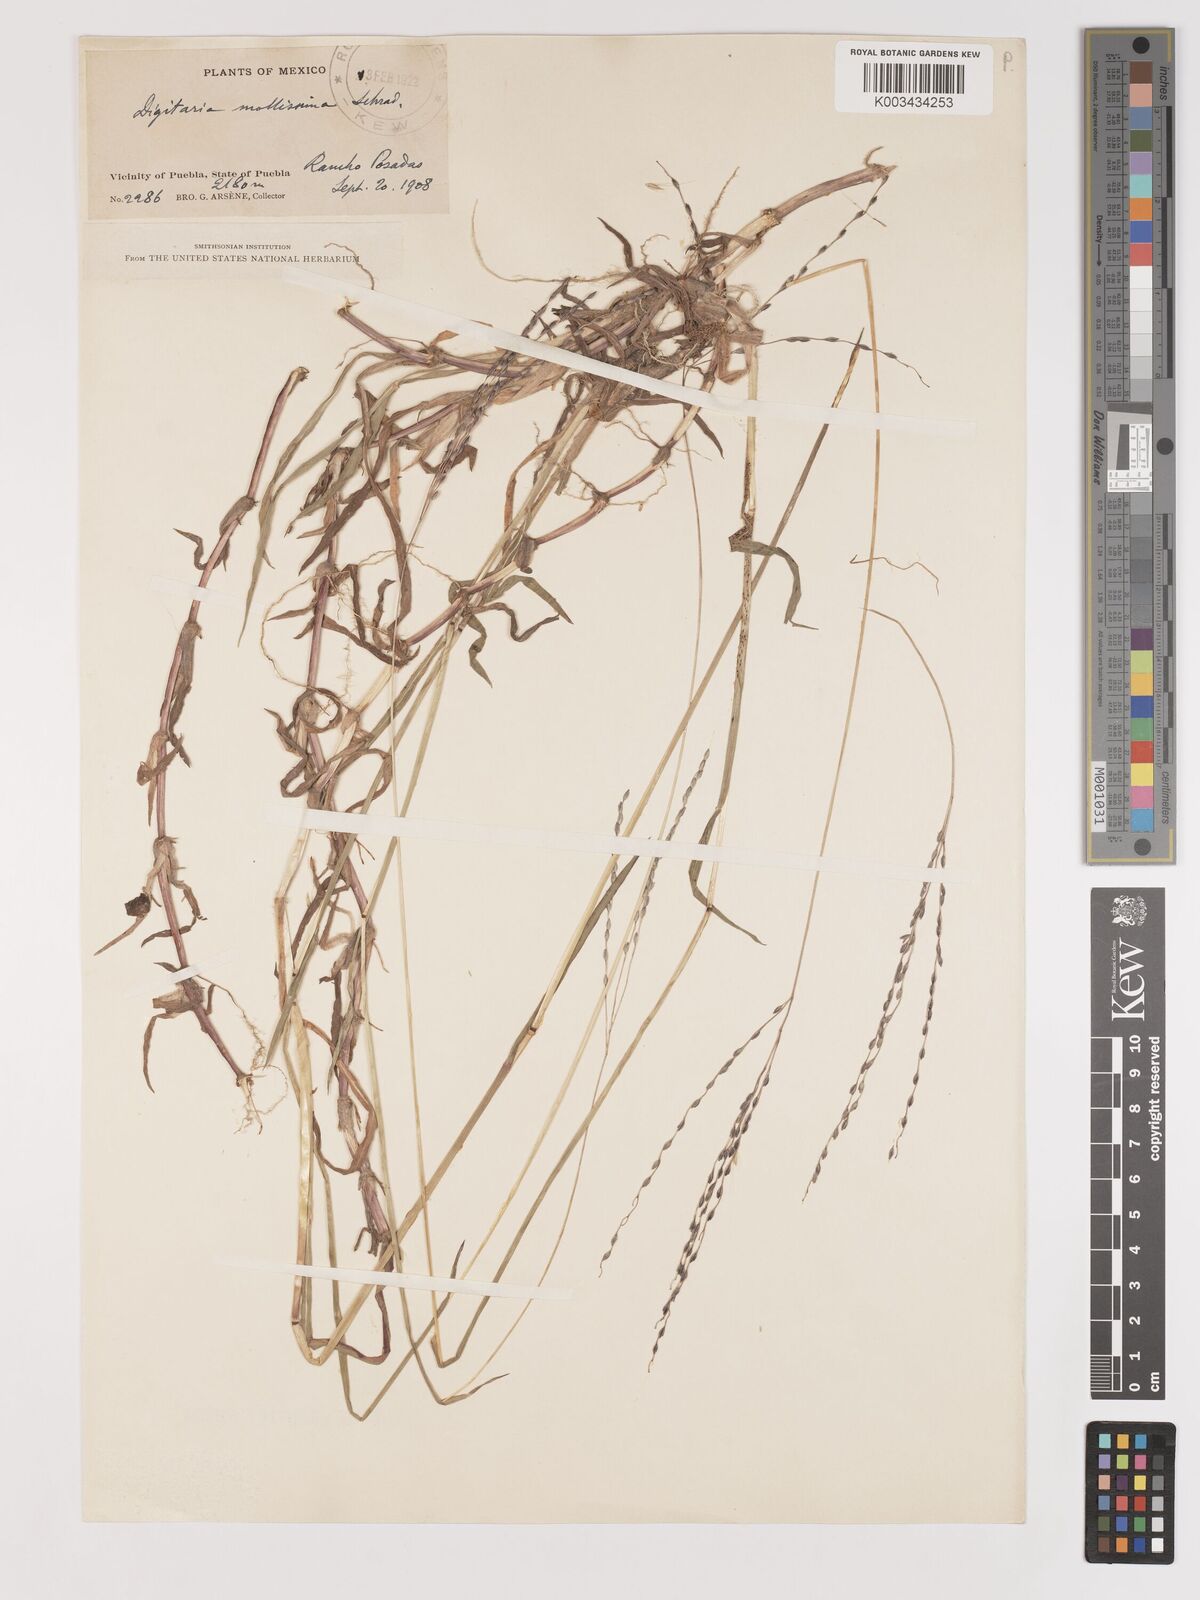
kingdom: Plantae
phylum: Tracheophyta
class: Liliopsida
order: Poales
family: Poaceae
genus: Digitaria
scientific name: Digitaria leucites
